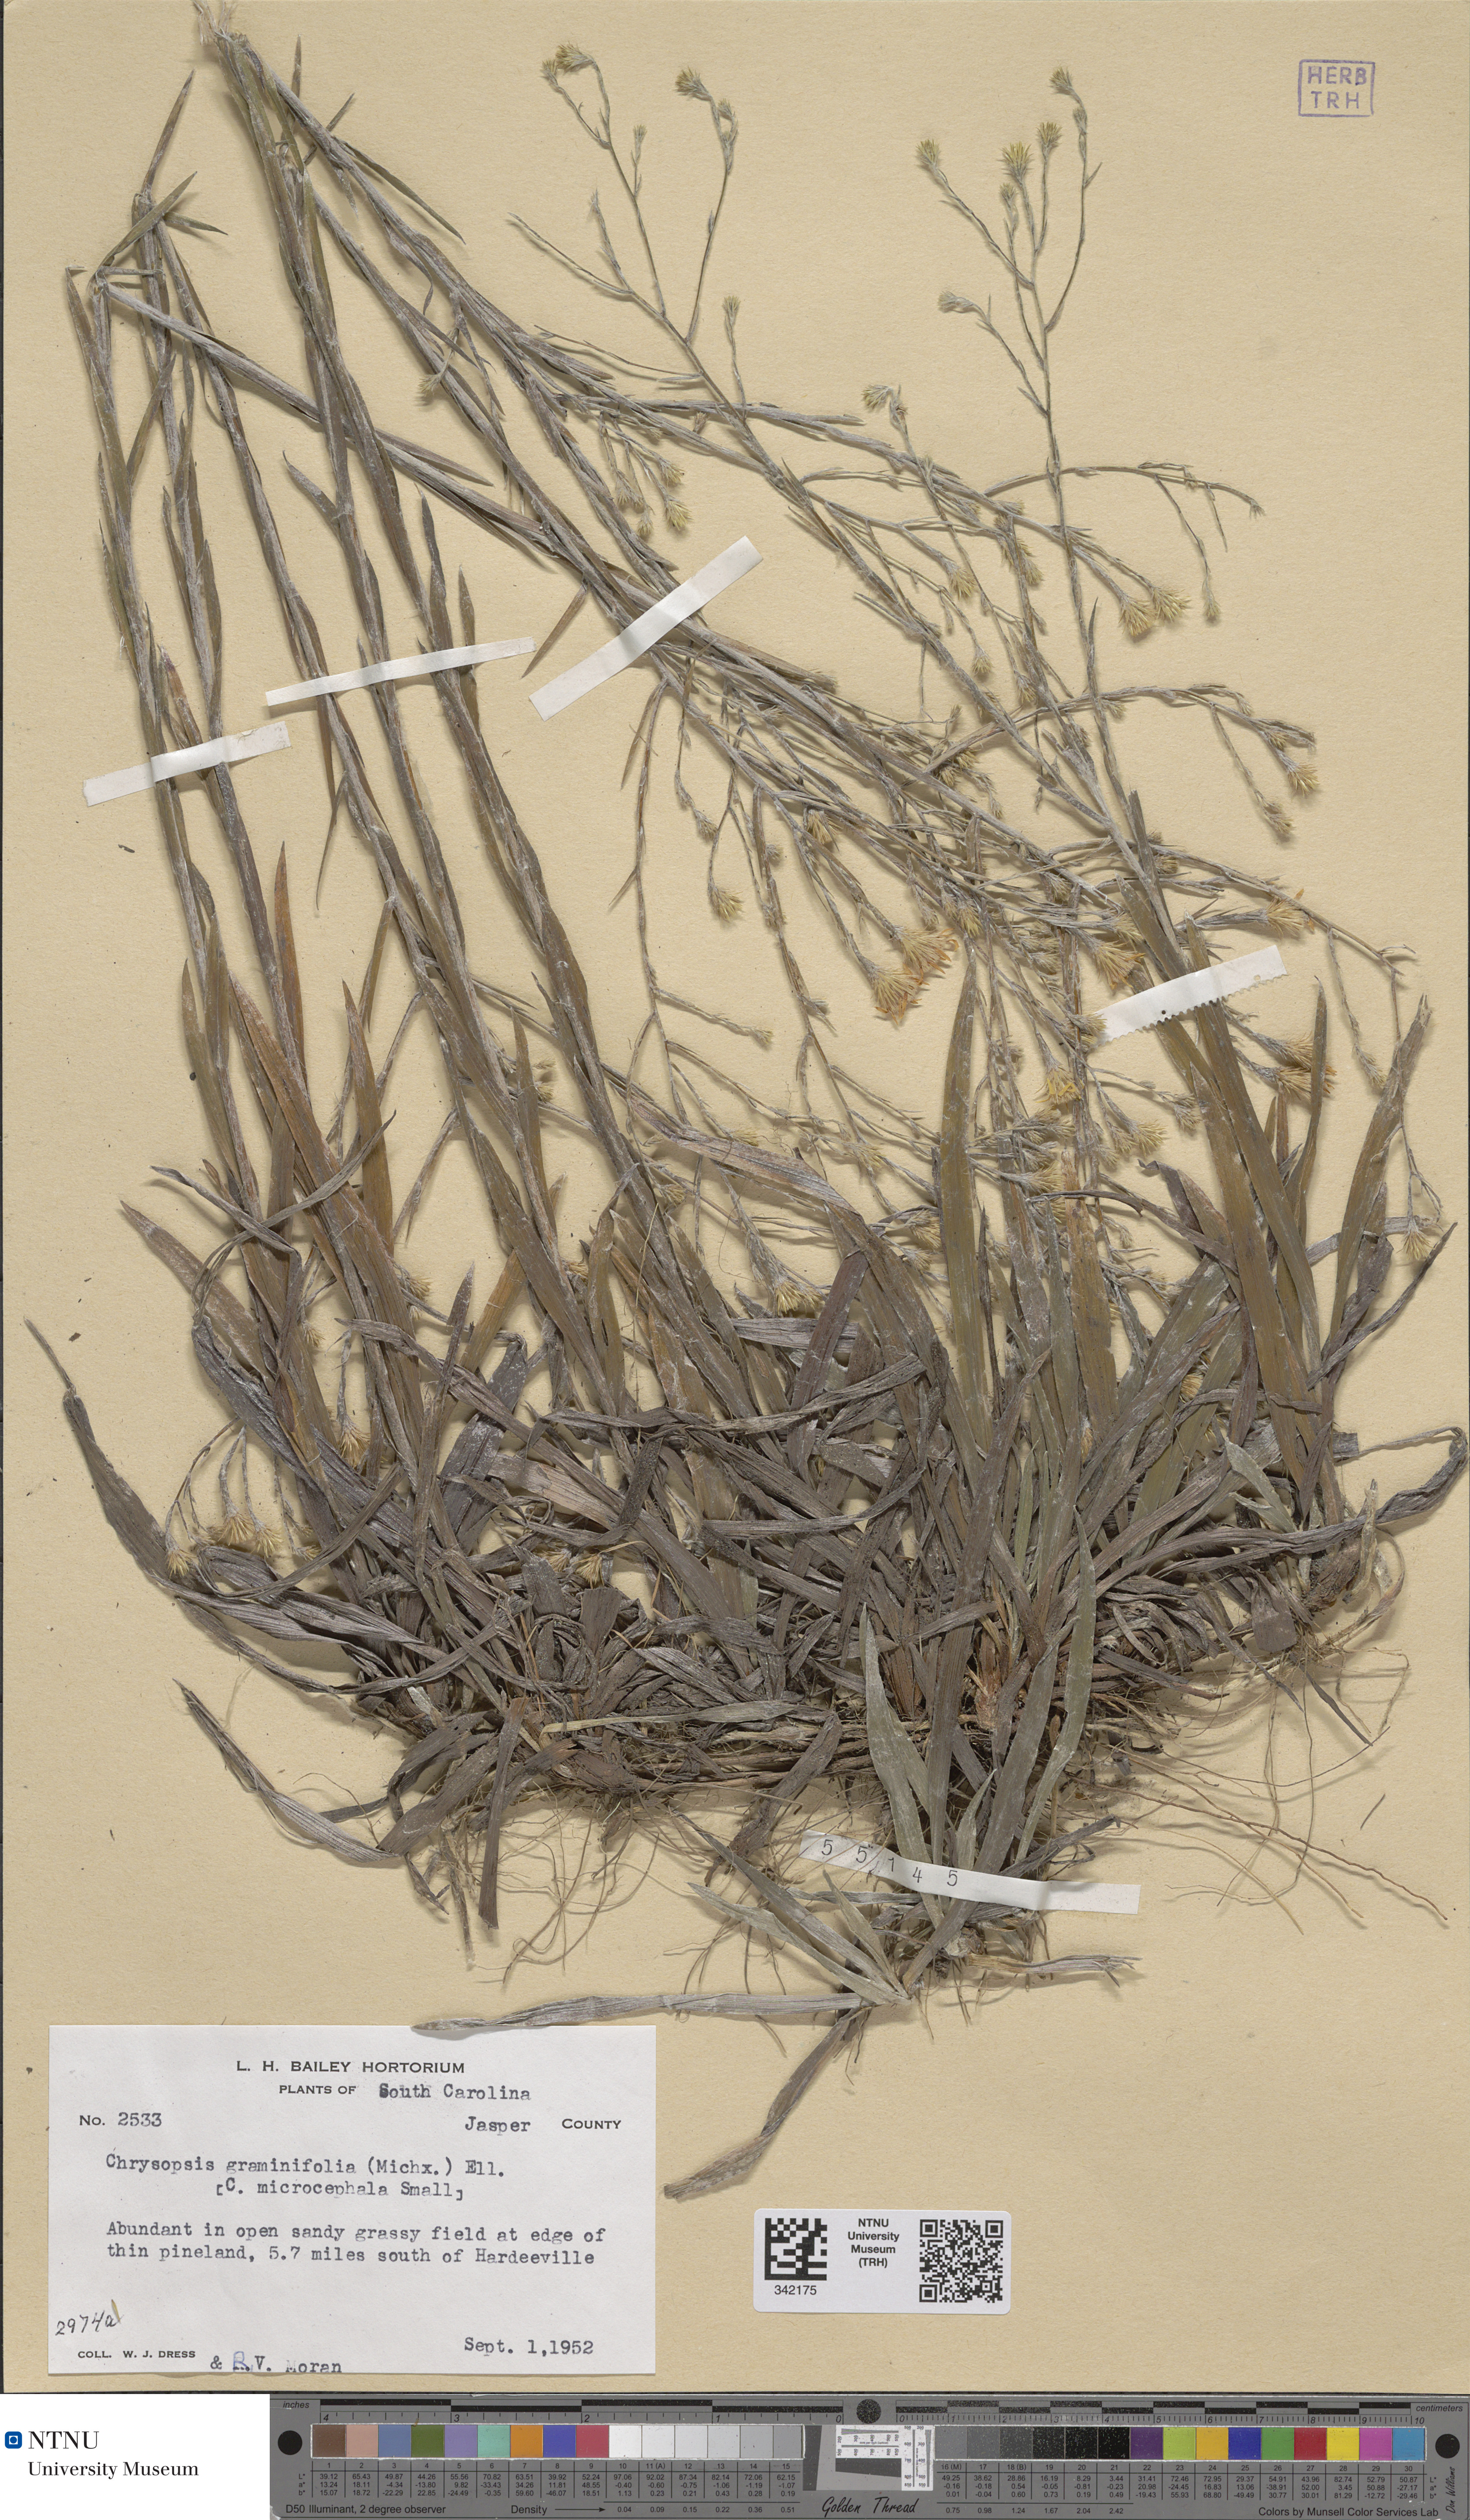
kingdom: Plantae
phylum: Tracheophyta
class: Magnoliopsida
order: Asterales
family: Asteraceae
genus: Pityopsis
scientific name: Pityopsis graminifolia
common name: Grass-leaf golden-aster
